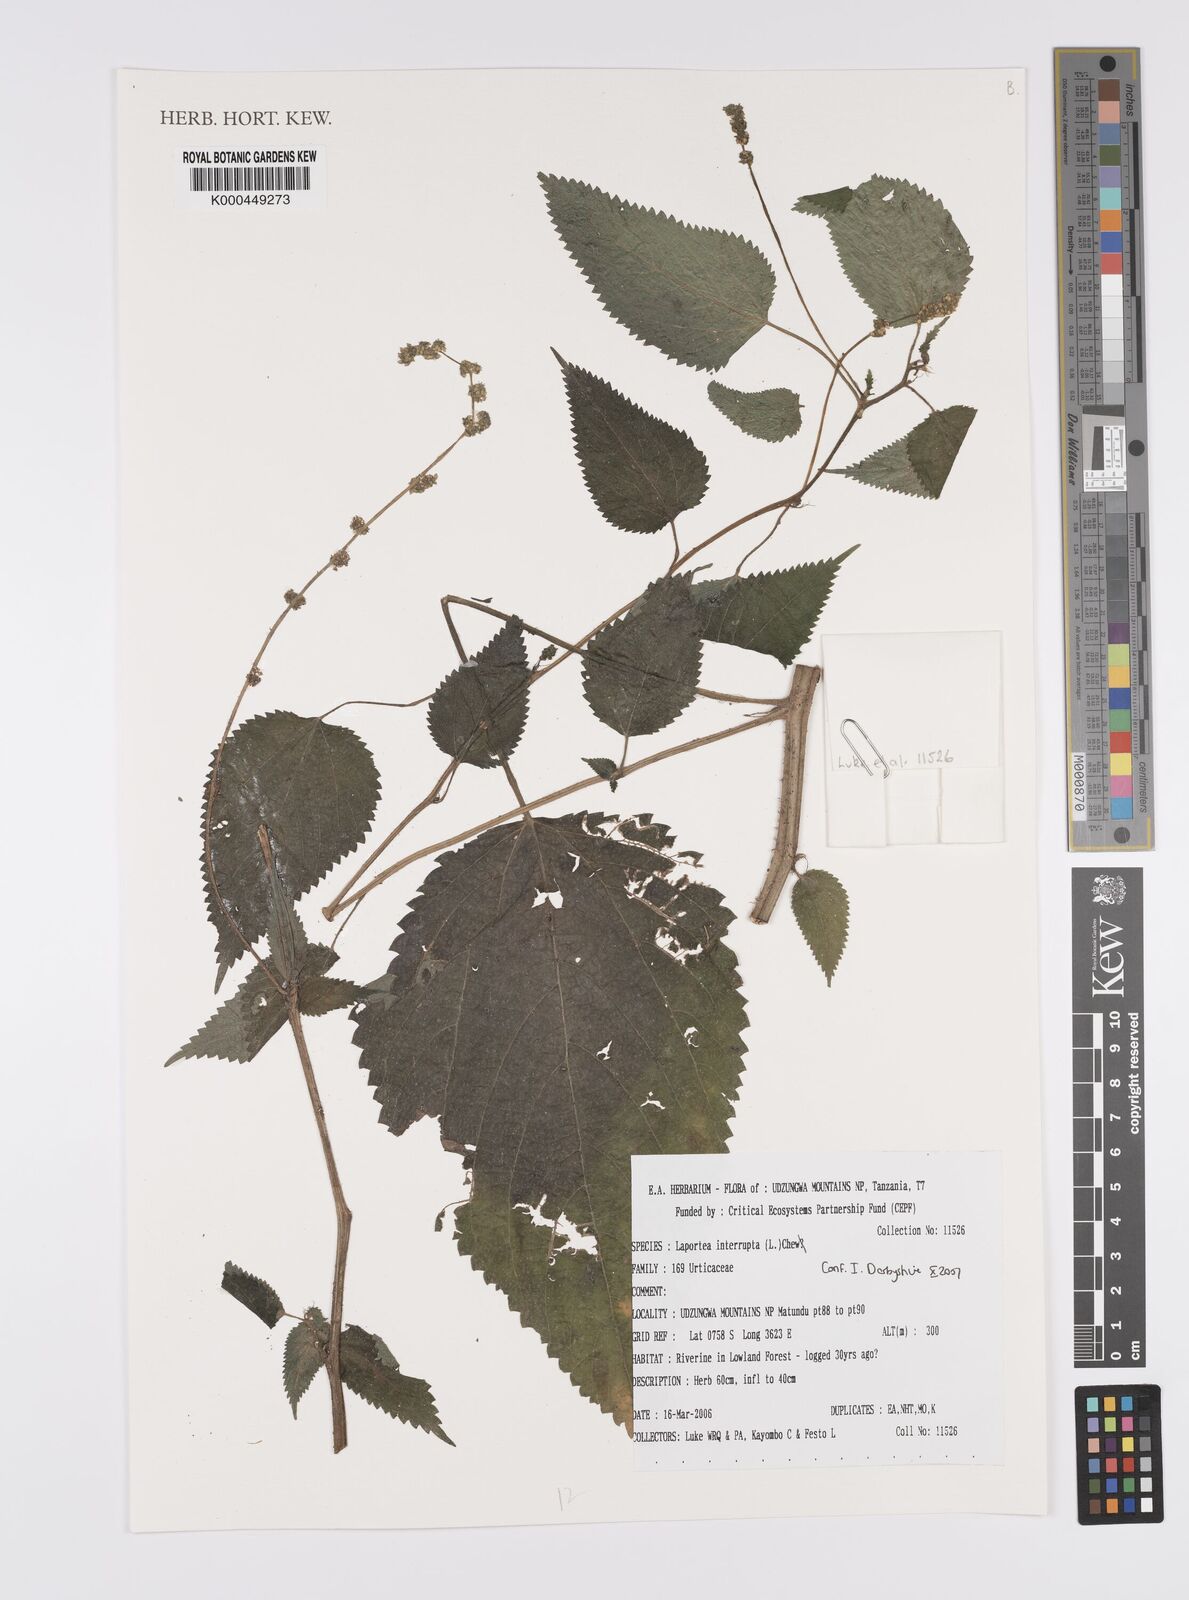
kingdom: Plantae
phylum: Tracheophyta
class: Magnoliopsida
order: Rosales
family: Urticaceae
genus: Laportea
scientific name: Laportea interrupta
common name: Hawaiian wood-nettle
